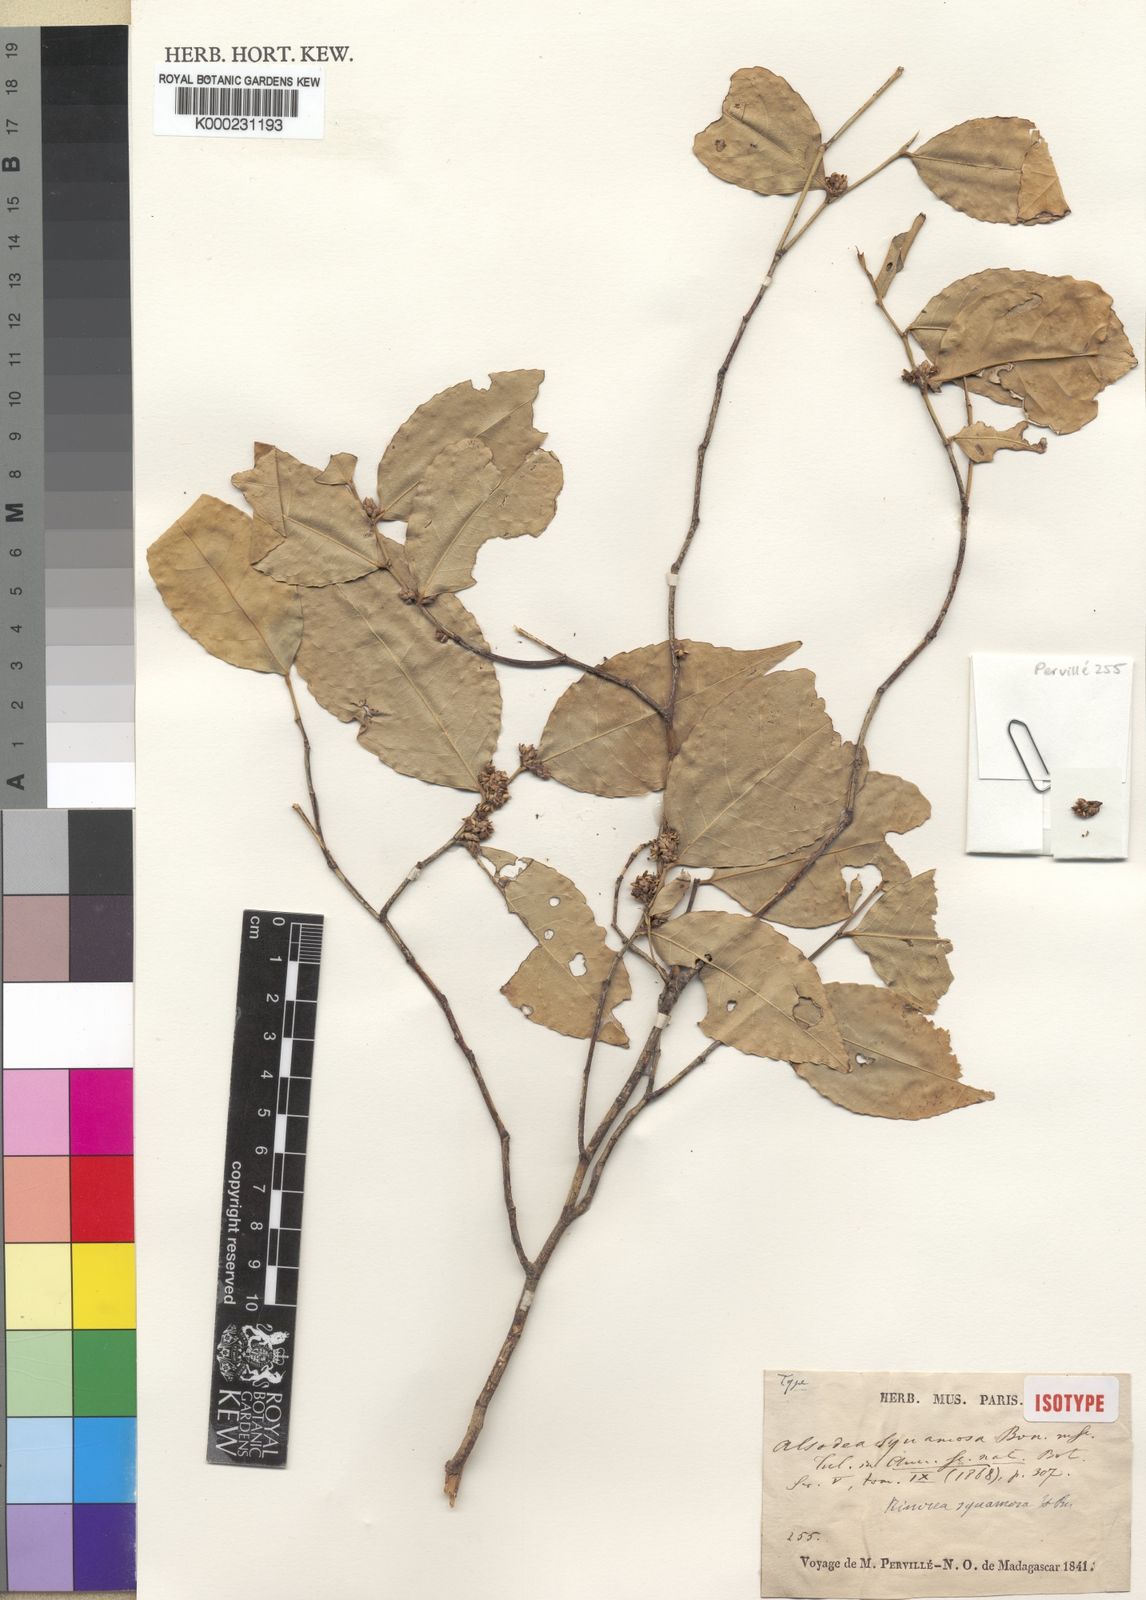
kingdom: Plantae
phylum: Tracheophyta
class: Magnoliopsida
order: Malpighiales
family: Violaceae
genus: Rinorea
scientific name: Rinorea squamosa
